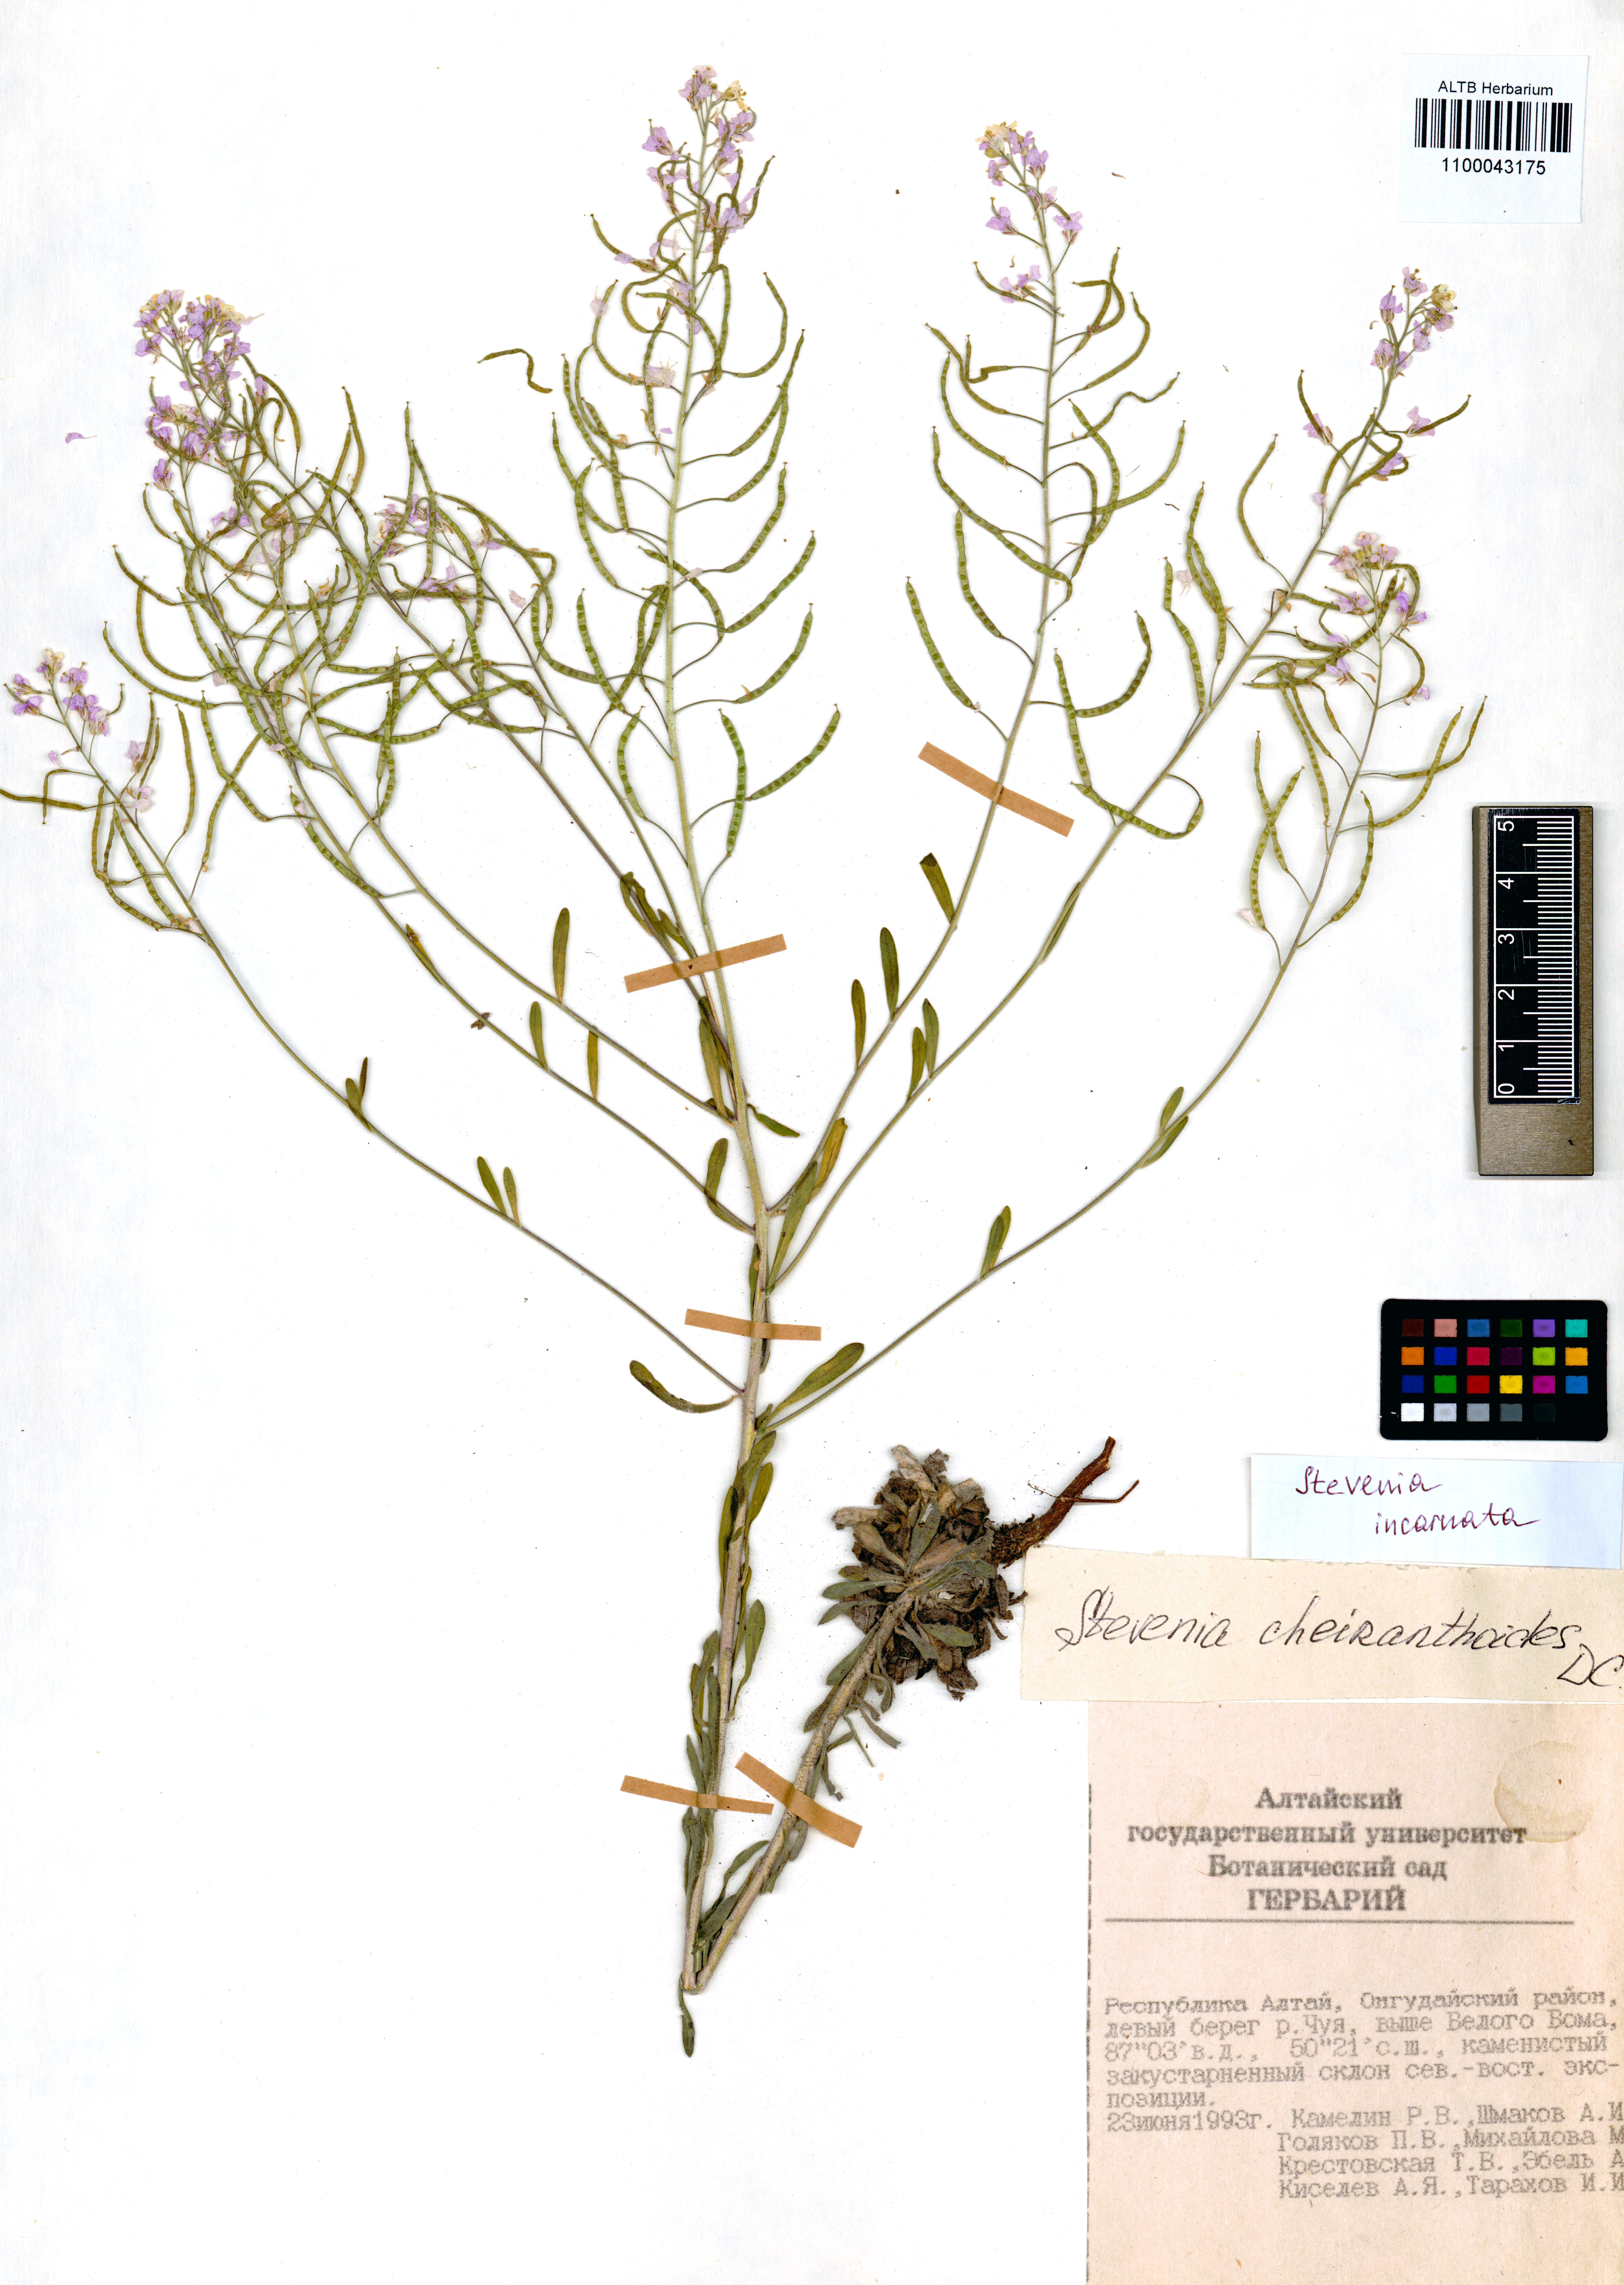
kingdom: Plantae
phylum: Tracheophyta
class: Magnoliopsida
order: Brassicales
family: Brassicaceae
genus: Stevenia
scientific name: Stevenia incarnata
